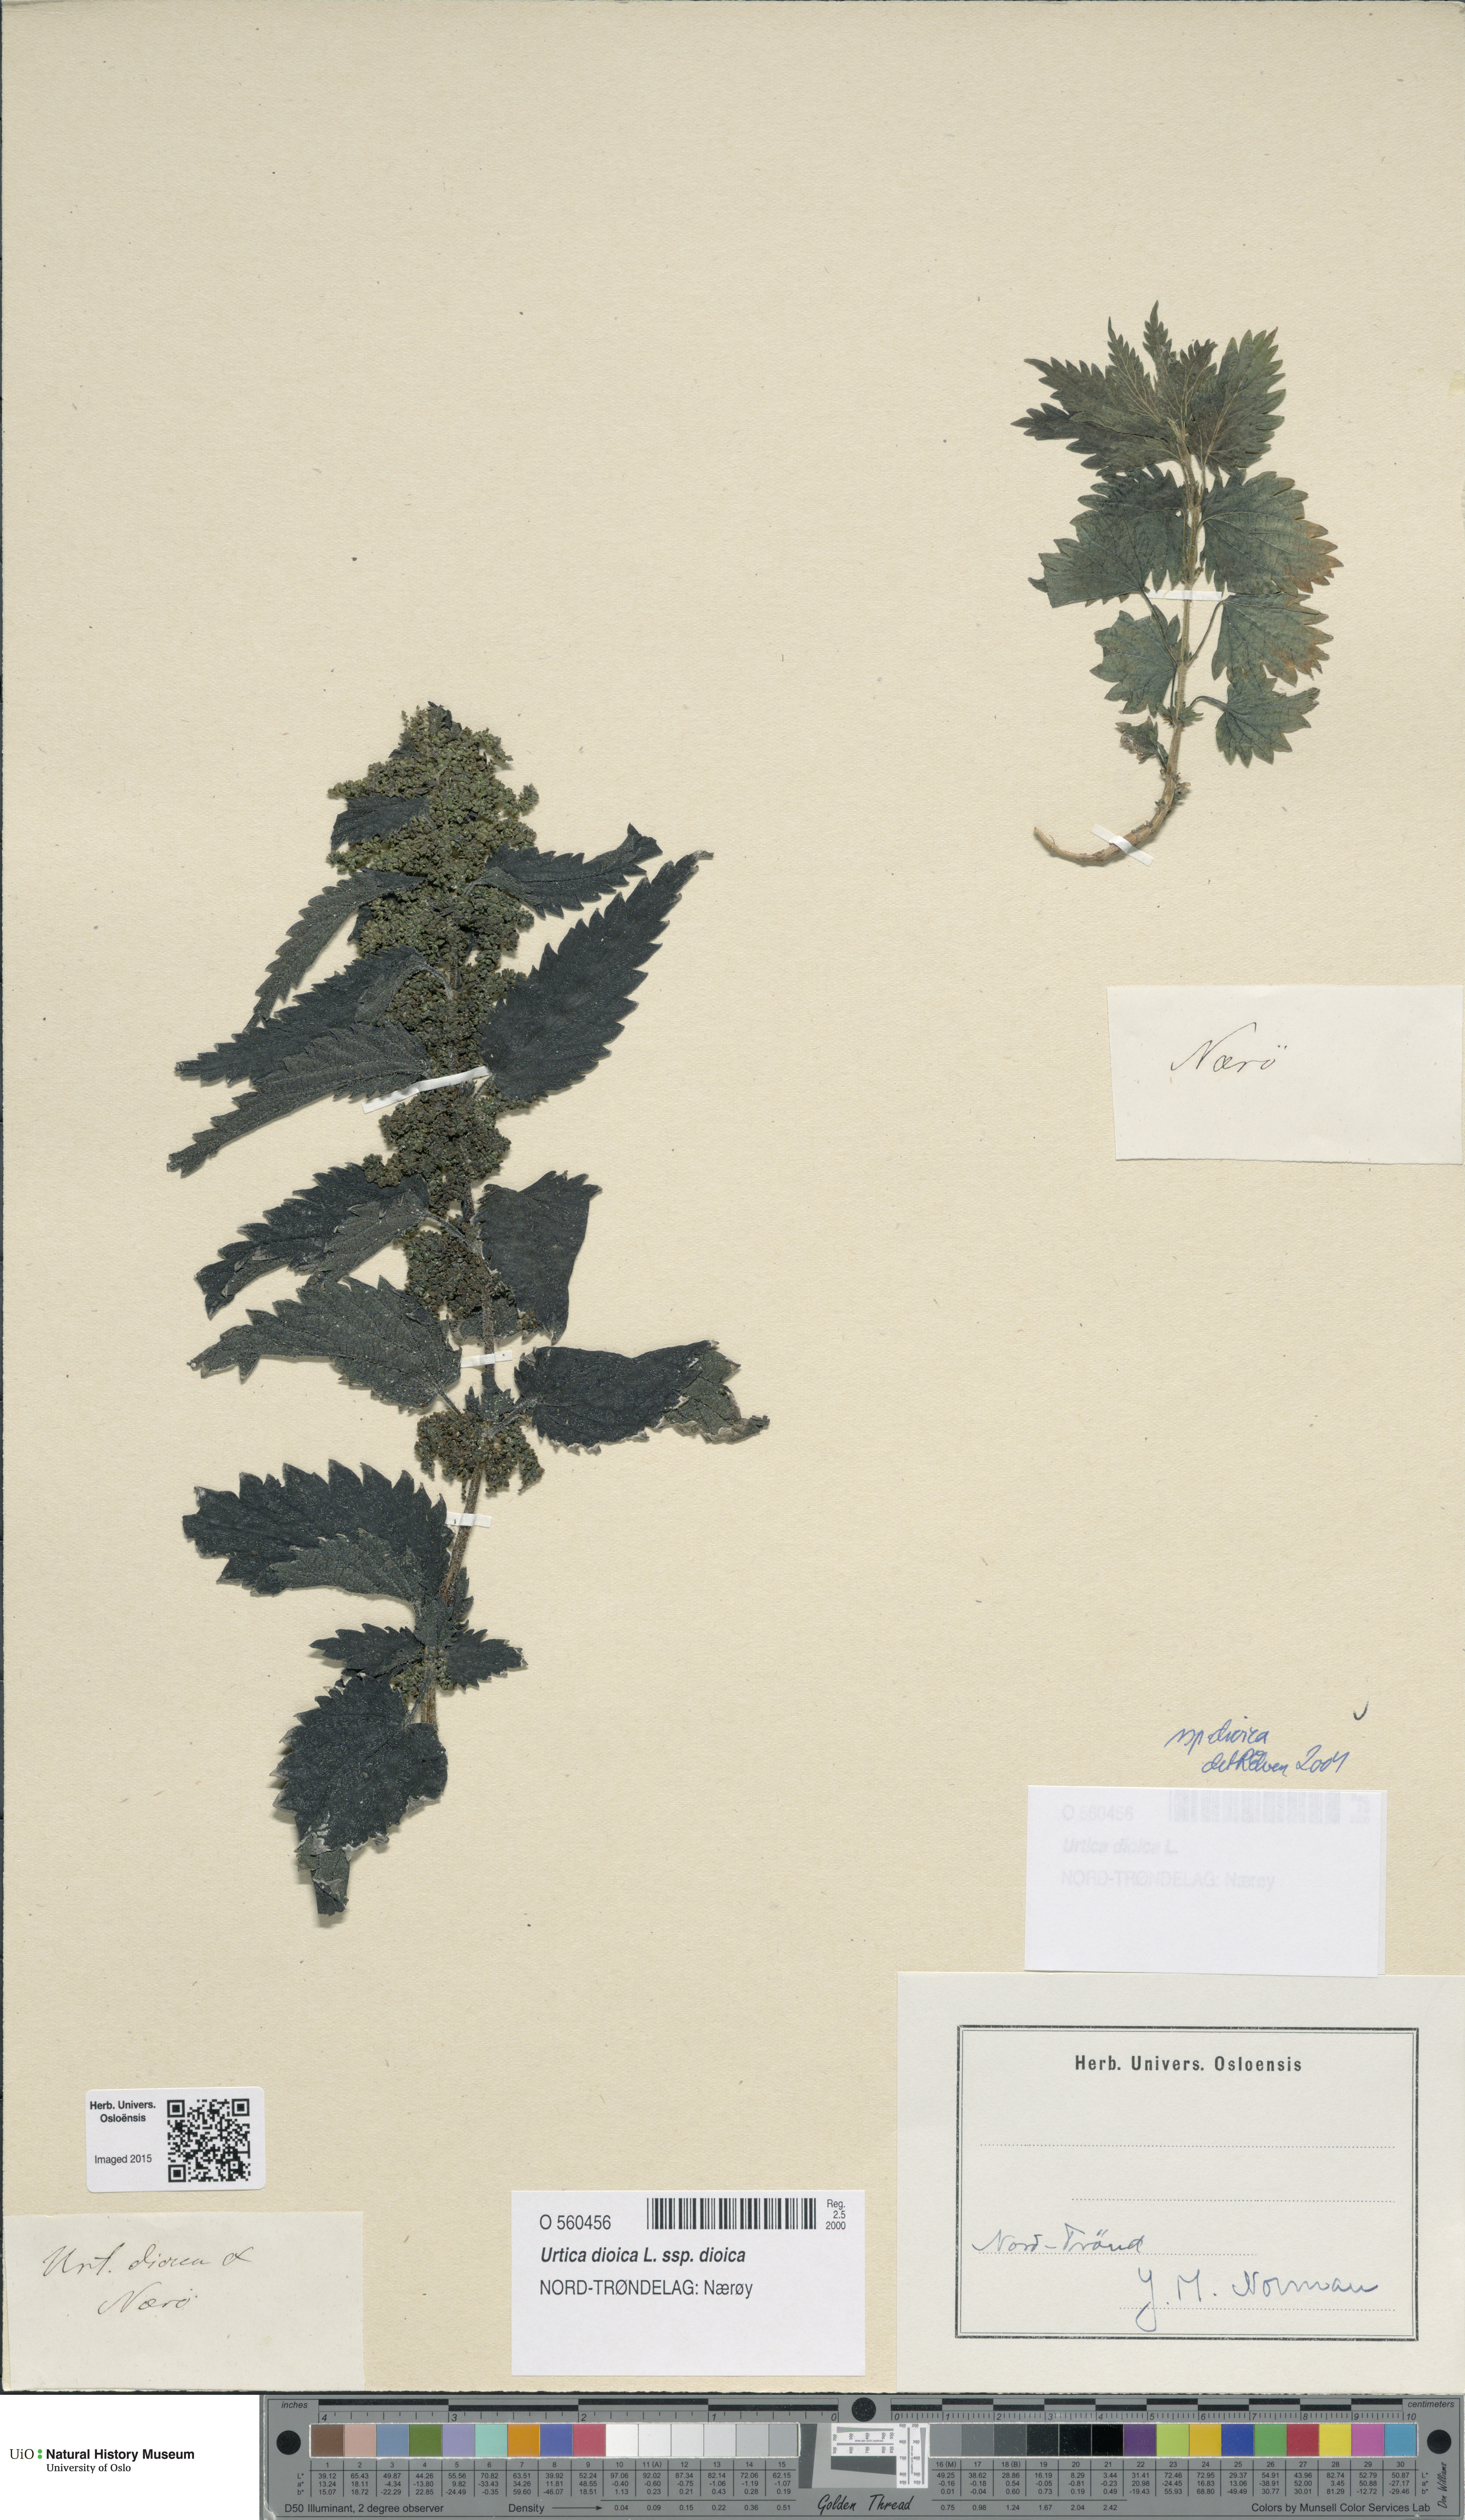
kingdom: Plantae
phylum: Tracheophyta
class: Magnoliopsida
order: Rosales
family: Urticaceae
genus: Urtica
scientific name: Urtica dioica
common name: Common nettle
